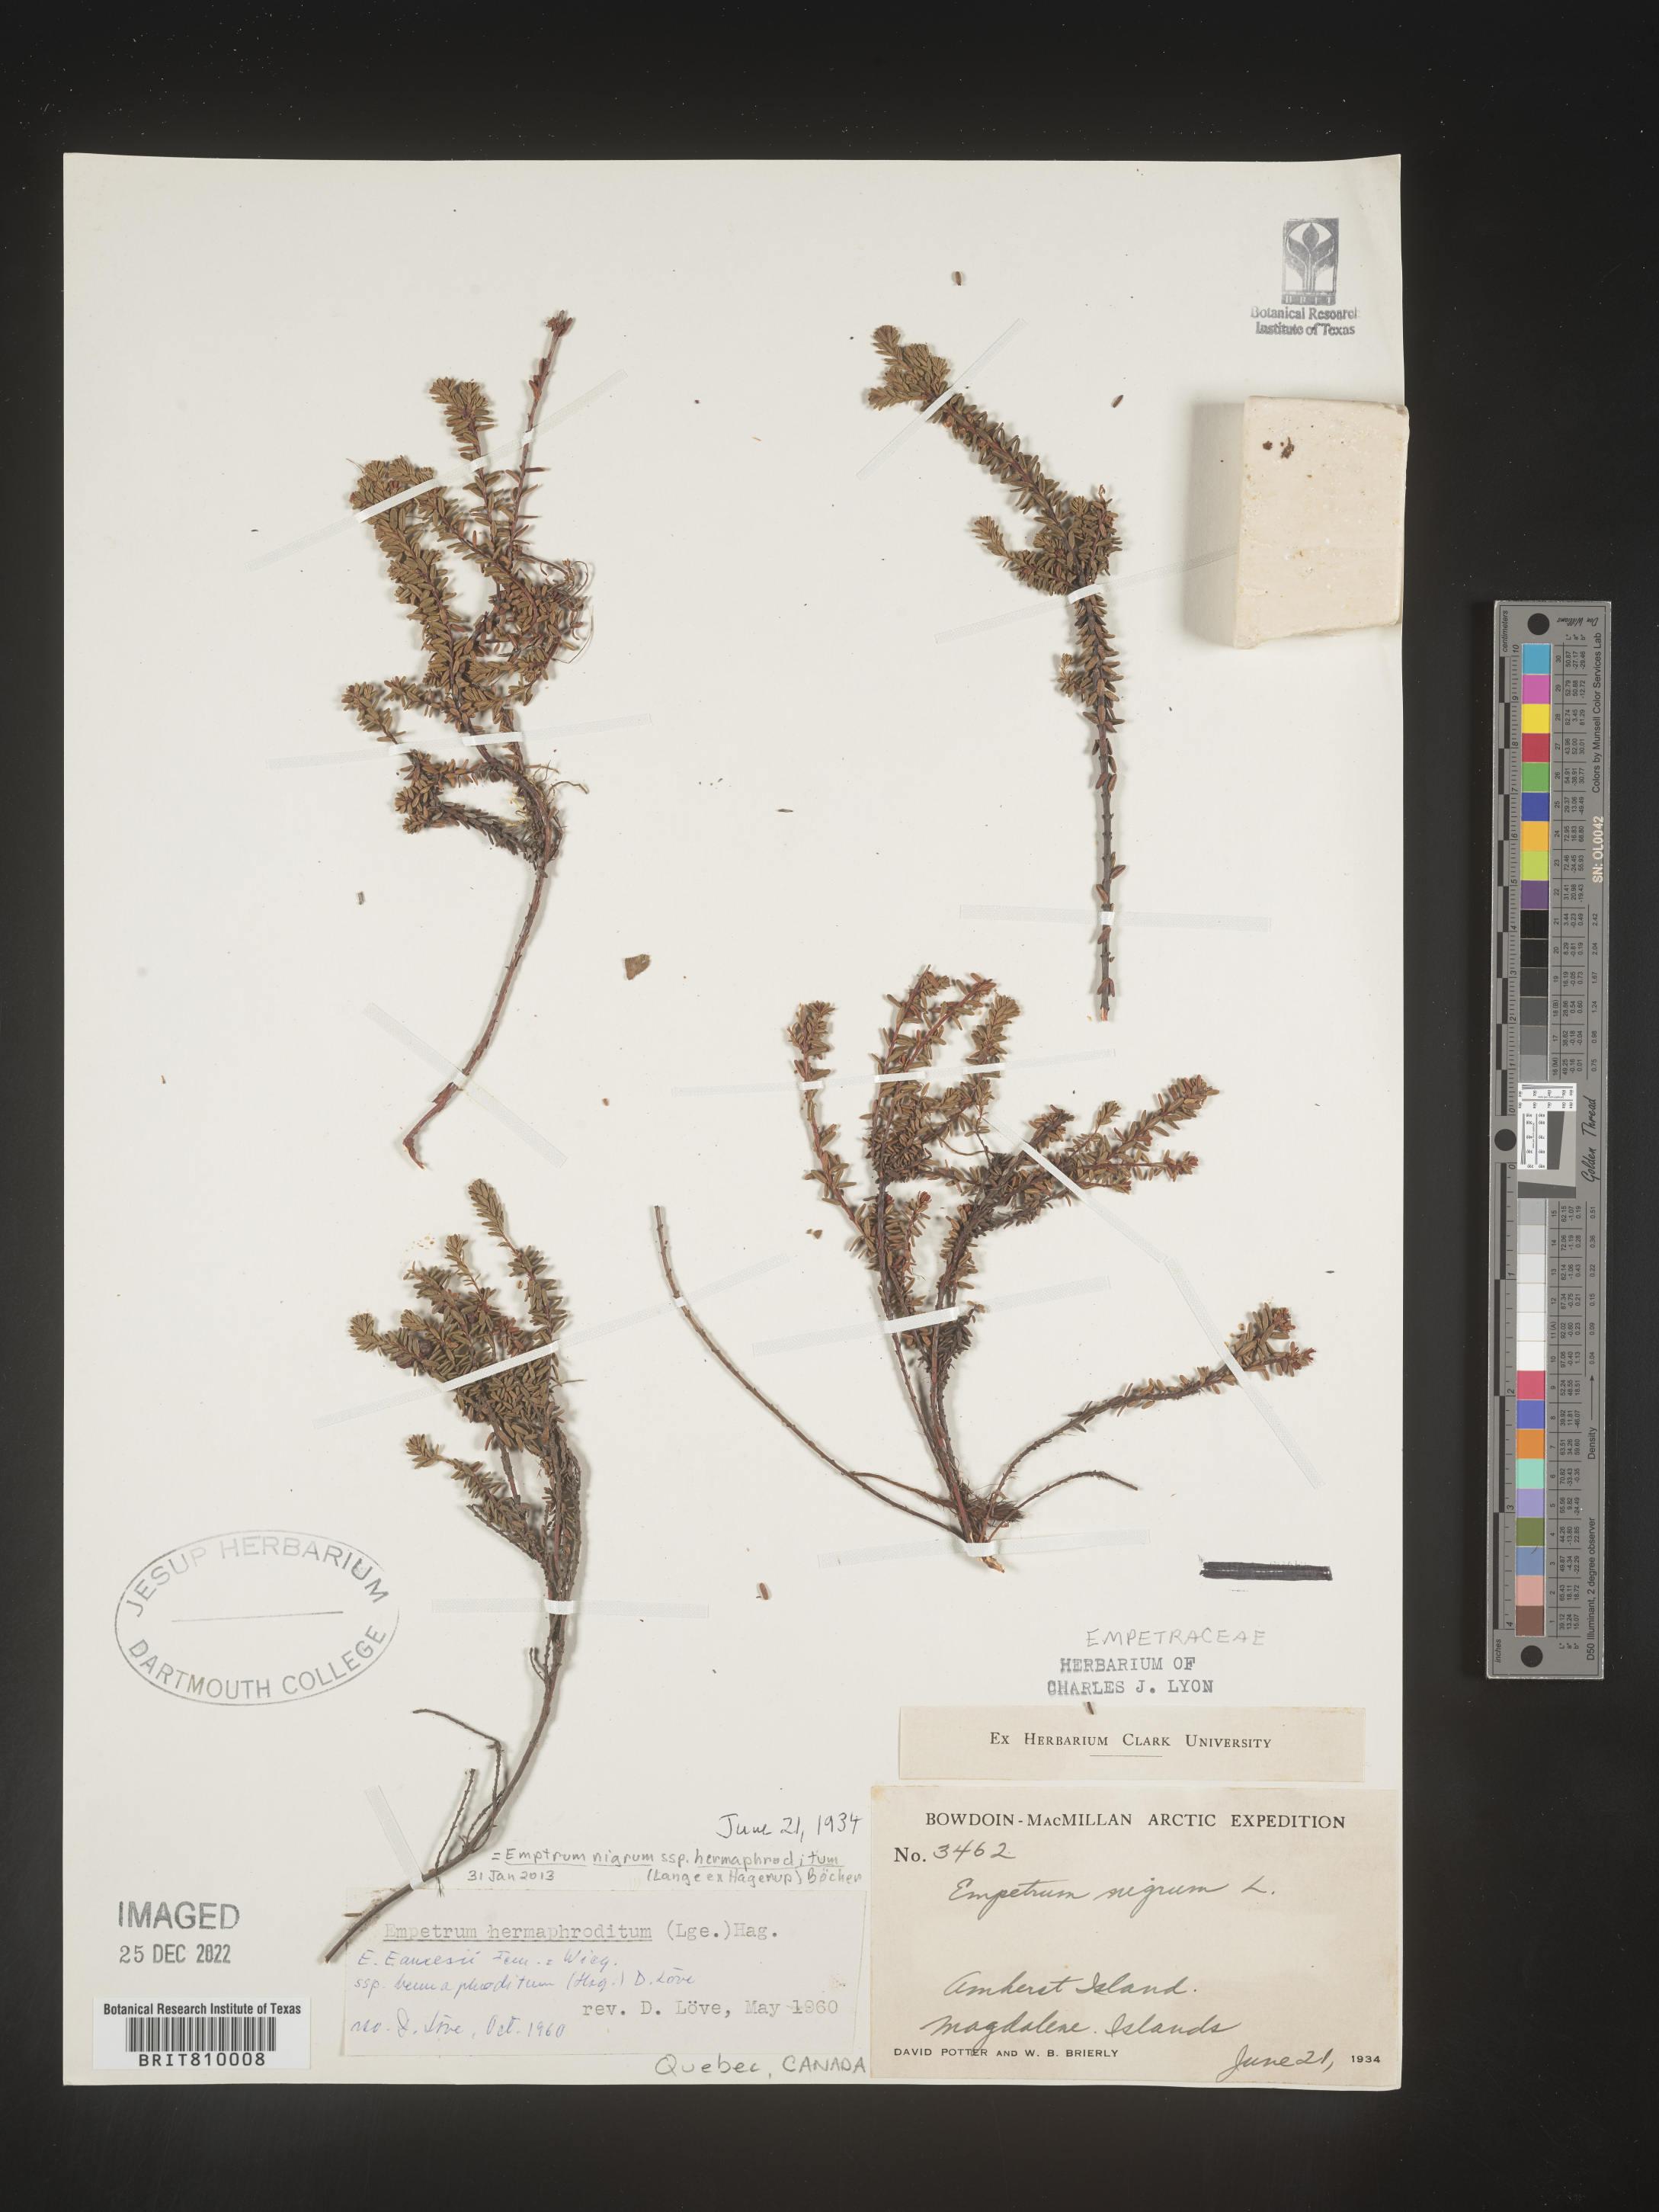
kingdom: Plantae
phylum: Tracheophyta
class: Magnoliopsida
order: Ericales
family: Ericaceae
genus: Empetrum
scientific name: Empetrum
